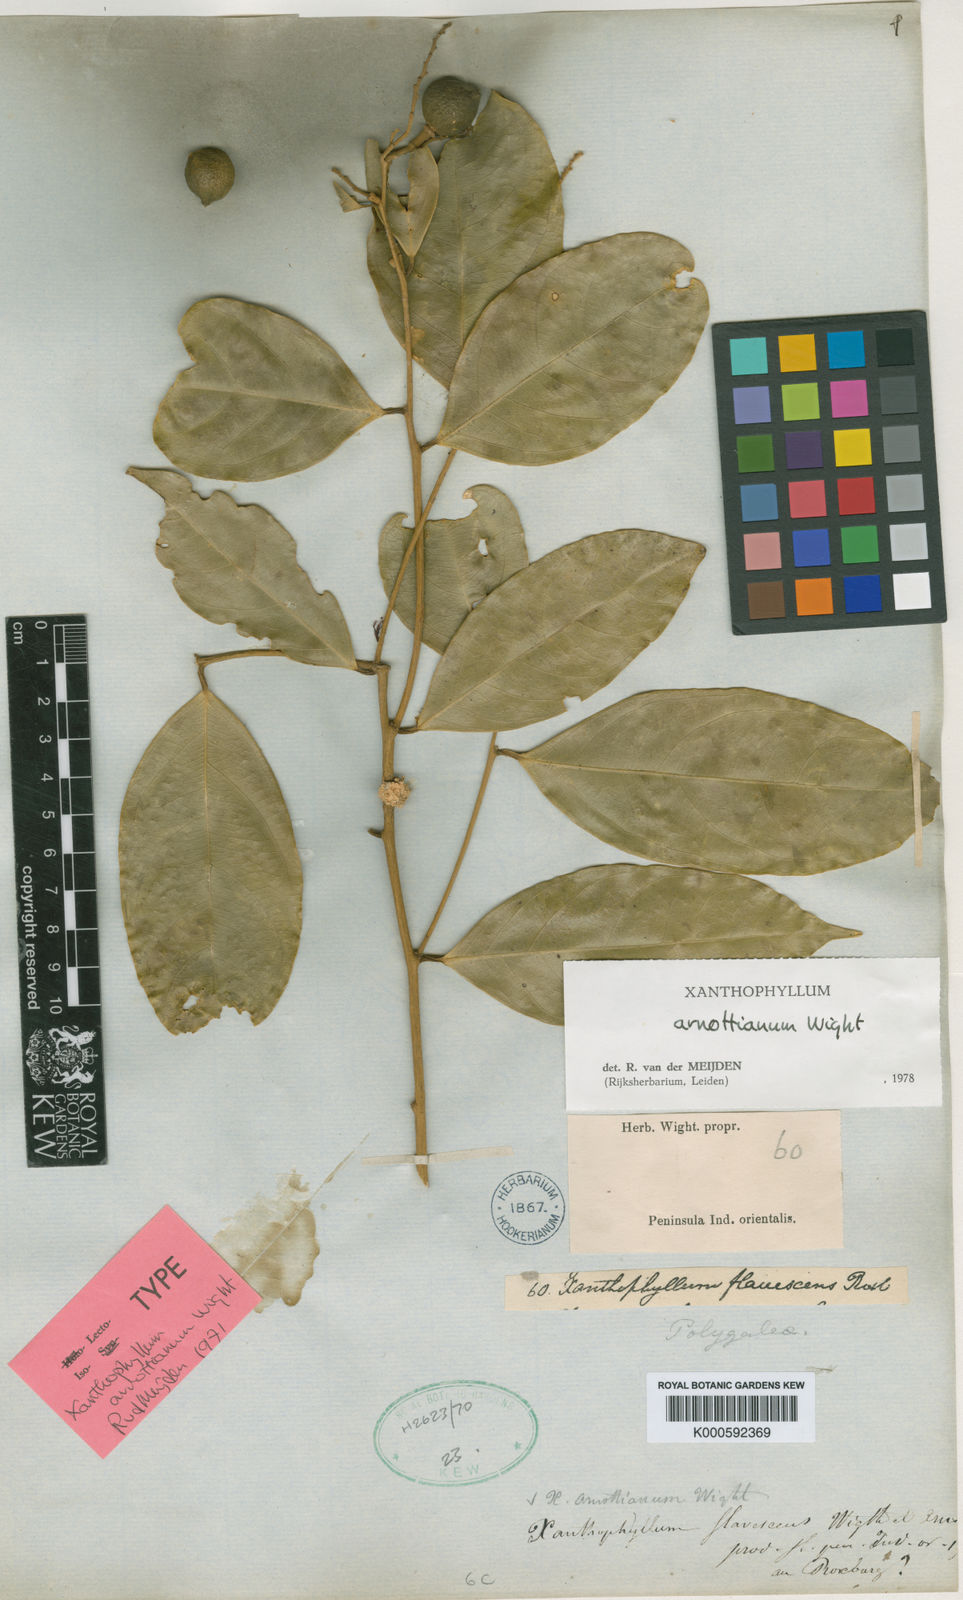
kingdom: Plantae
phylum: Tracheophyta
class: Magnoliopsida
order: Fabales
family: Polygalaceae
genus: Xanthophyllum
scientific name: Xanthophyllum flavescens
